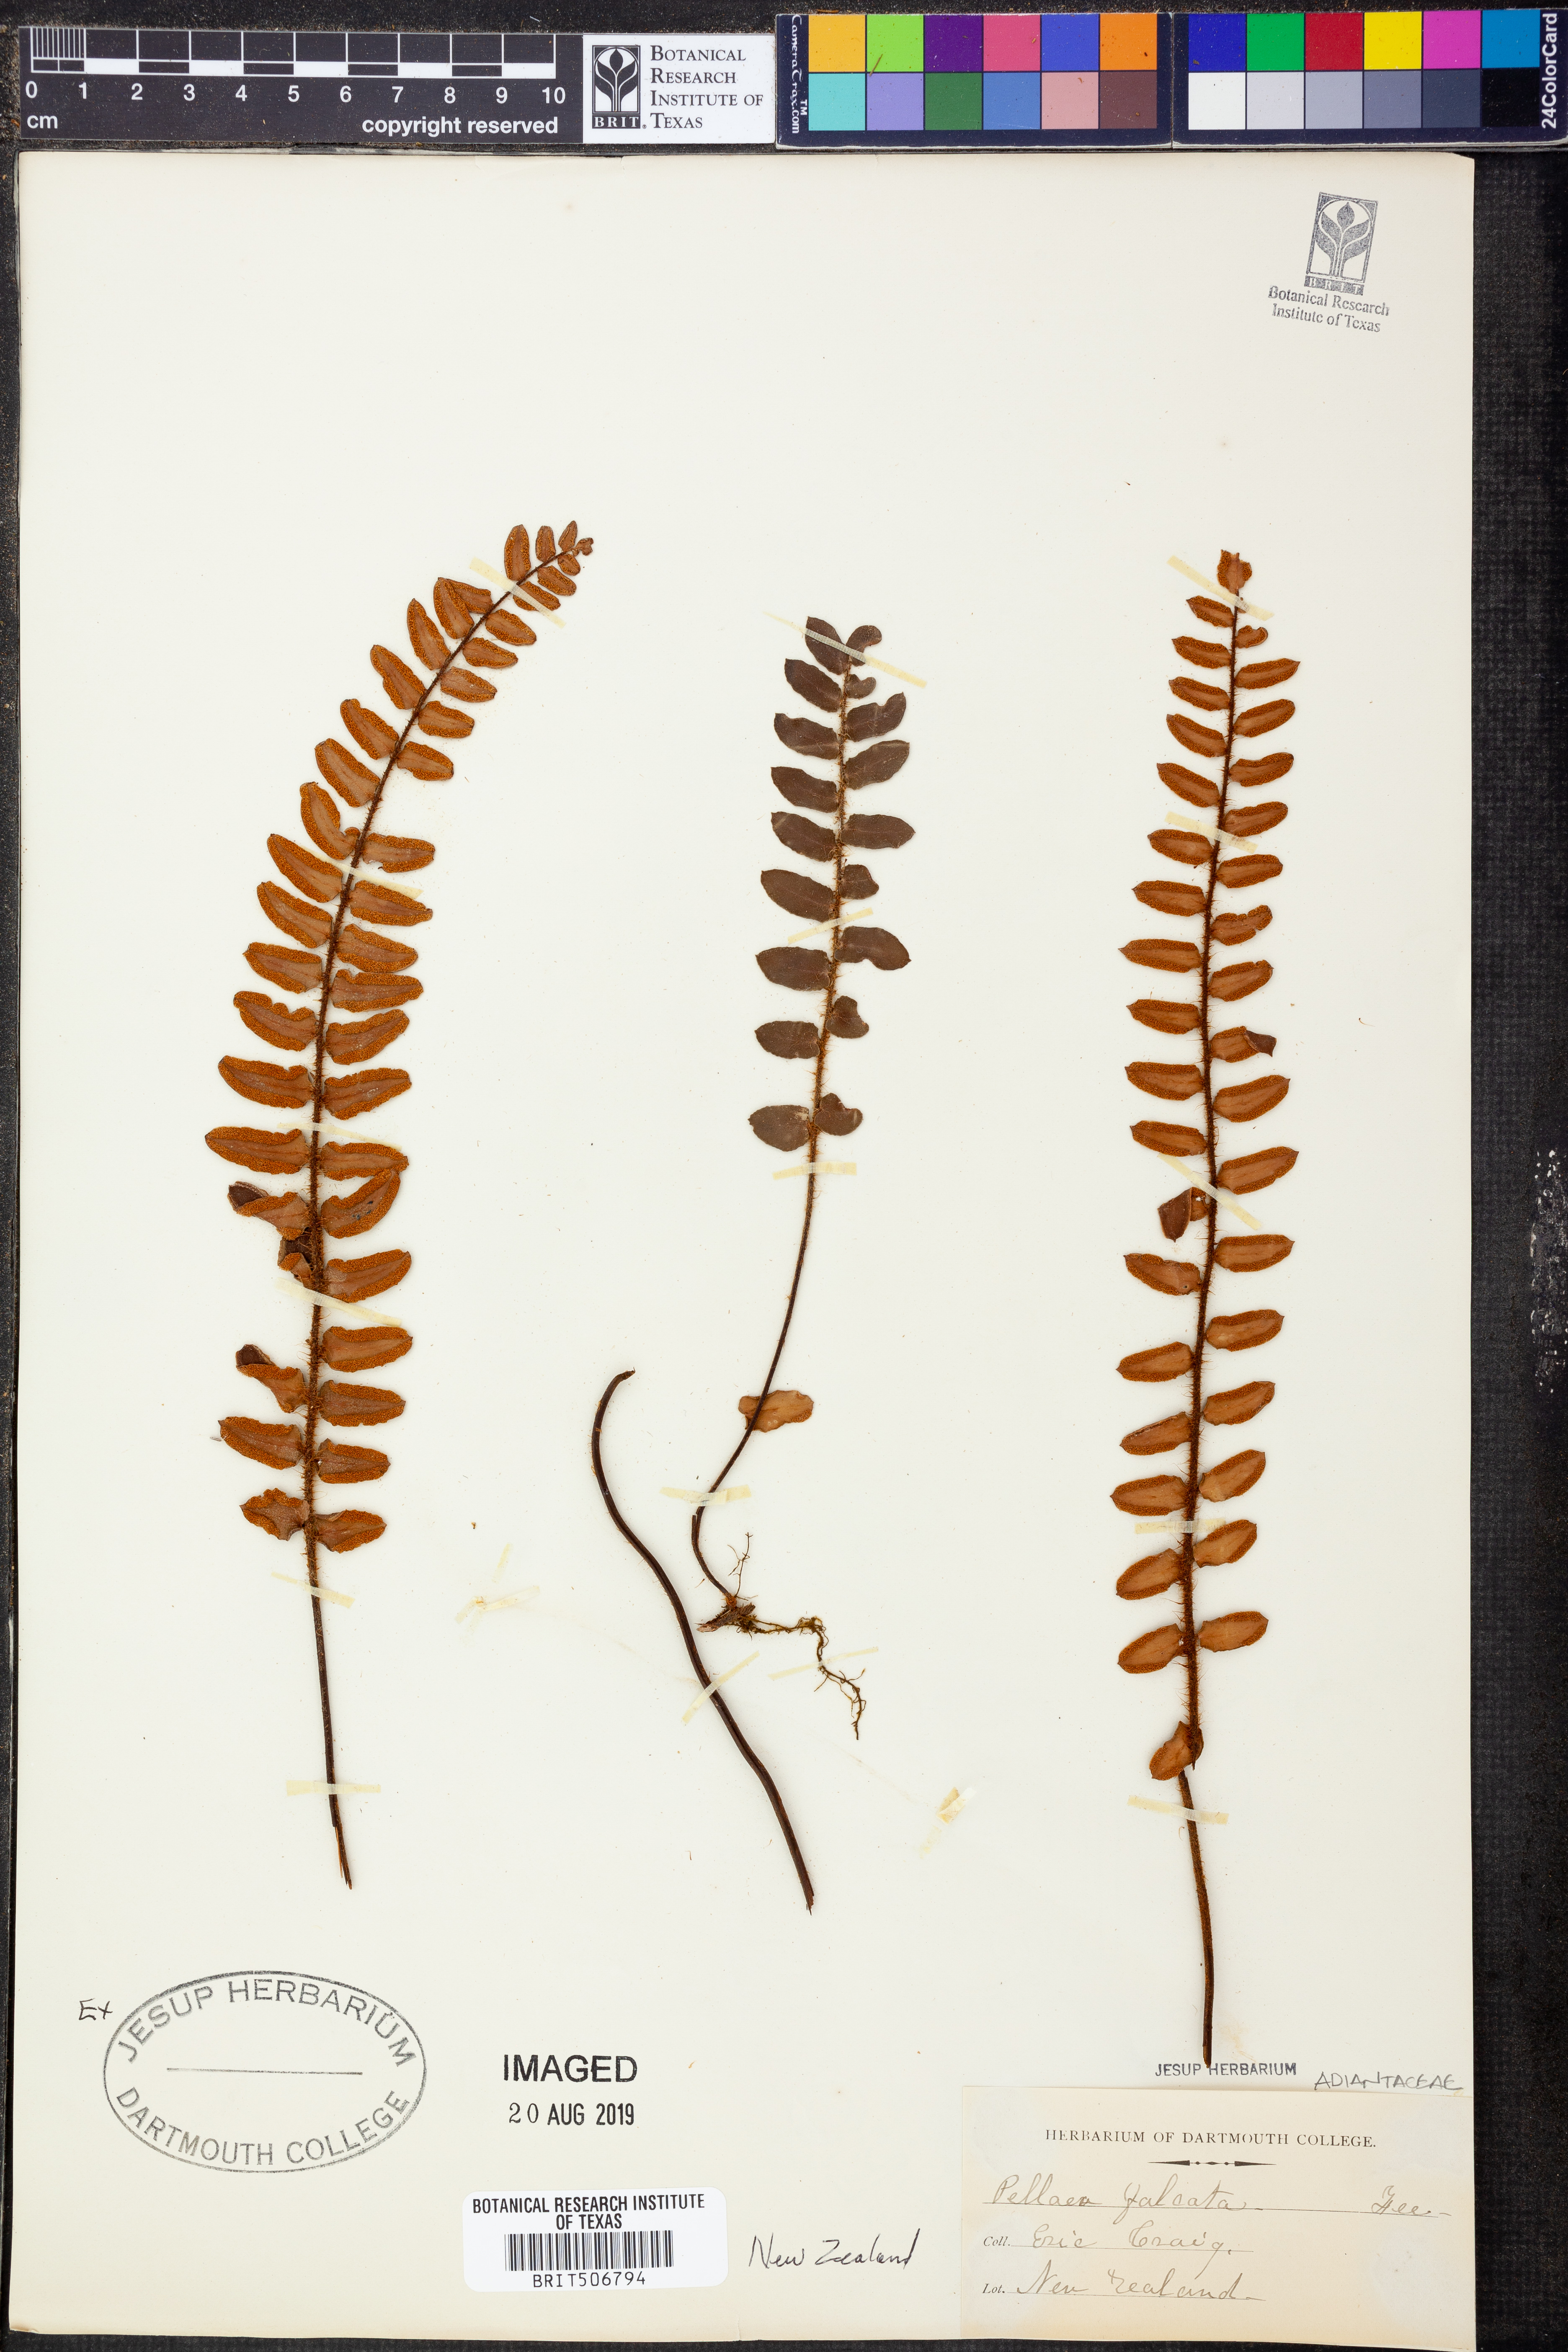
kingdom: Plantae
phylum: Tracheophyta
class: Polypodiopsida
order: Polypodiales
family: Pteridaceae
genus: Pellaea
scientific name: Pellaea falcata
